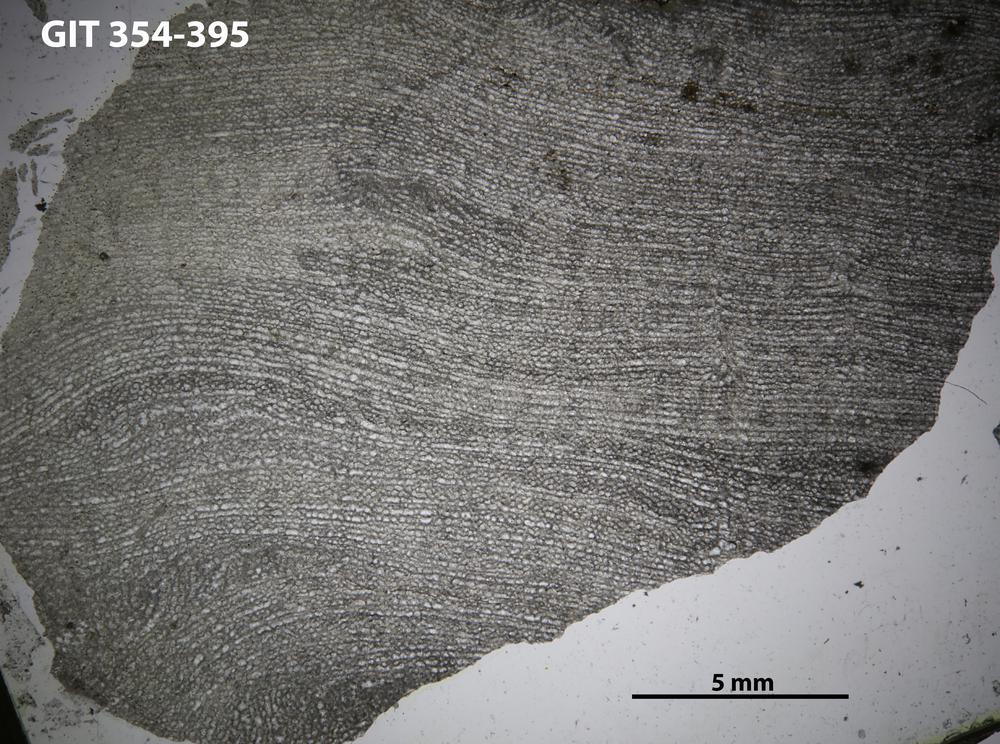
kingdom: Animalia
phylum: Porifera
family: Clathrodictyidae
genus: Clathrodictyon
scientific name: Clathrodictyon clivosum
